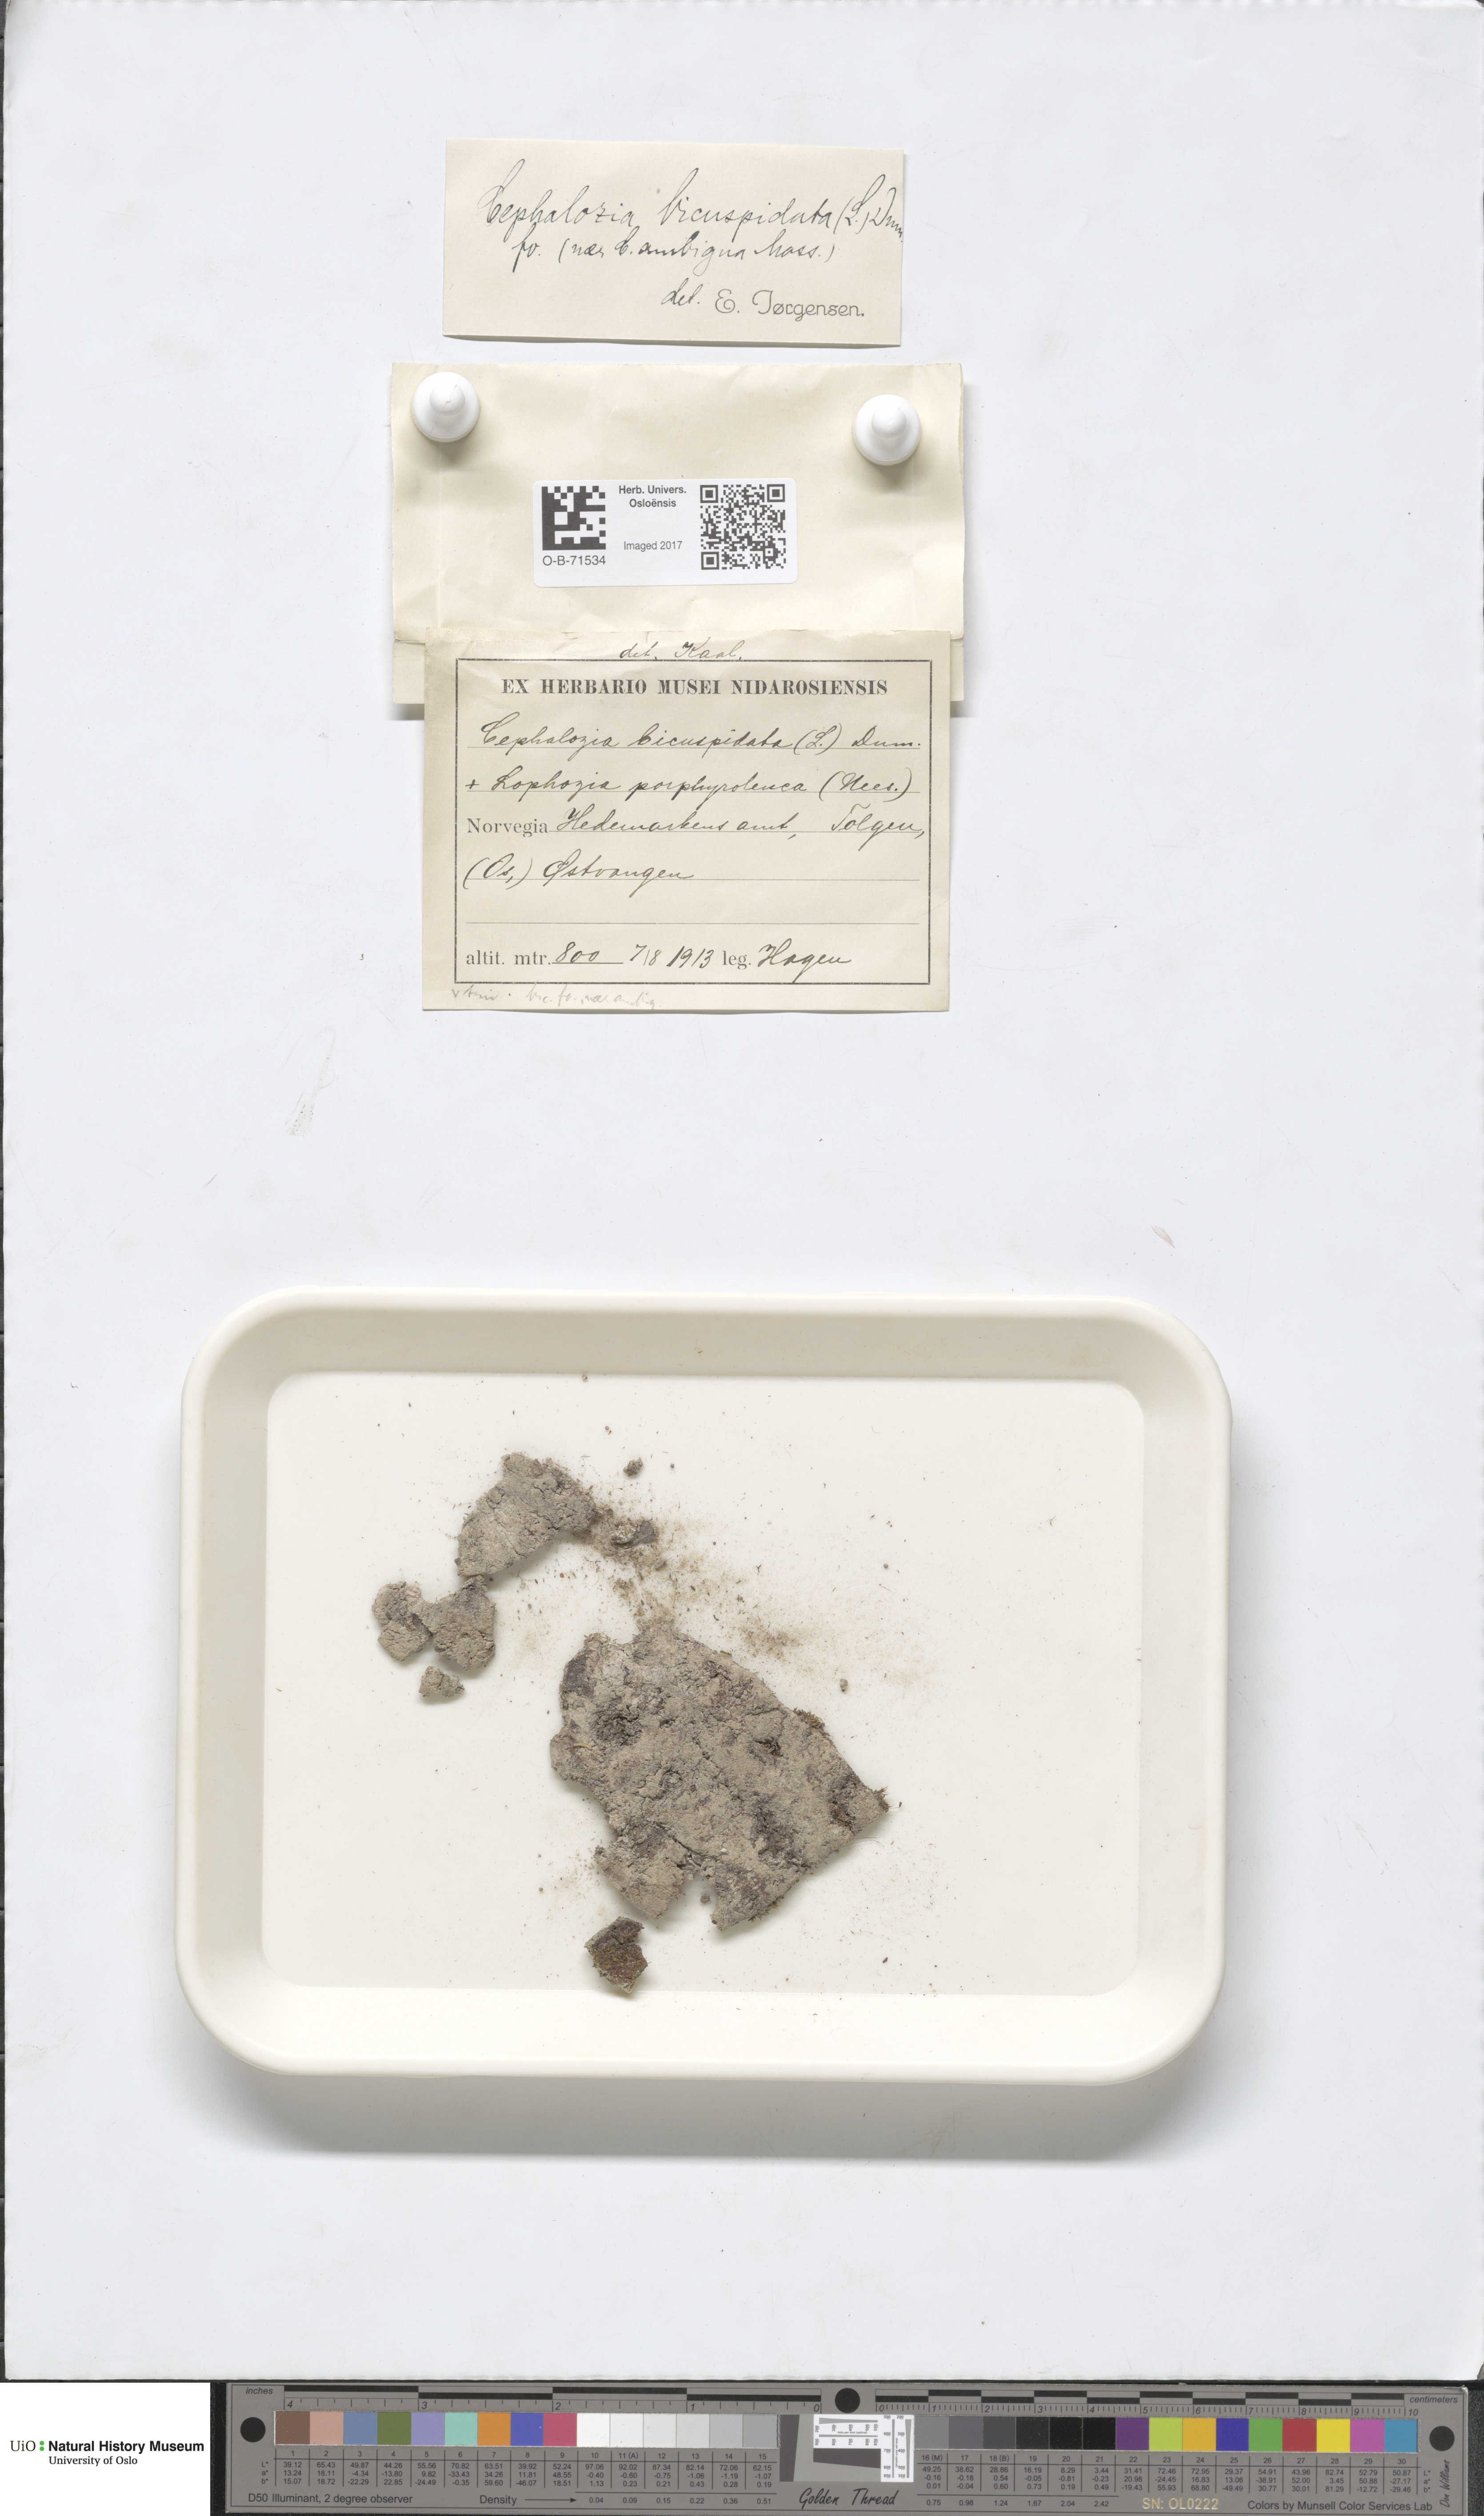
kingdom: Plantae
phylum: Marchantiophyta
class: Jungermanniopsida
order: Jungermanniales
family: Cephaloziaceae
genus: Cephalozia
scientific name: Cephalozia bicuspidata
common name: Two-horned pincerwort
